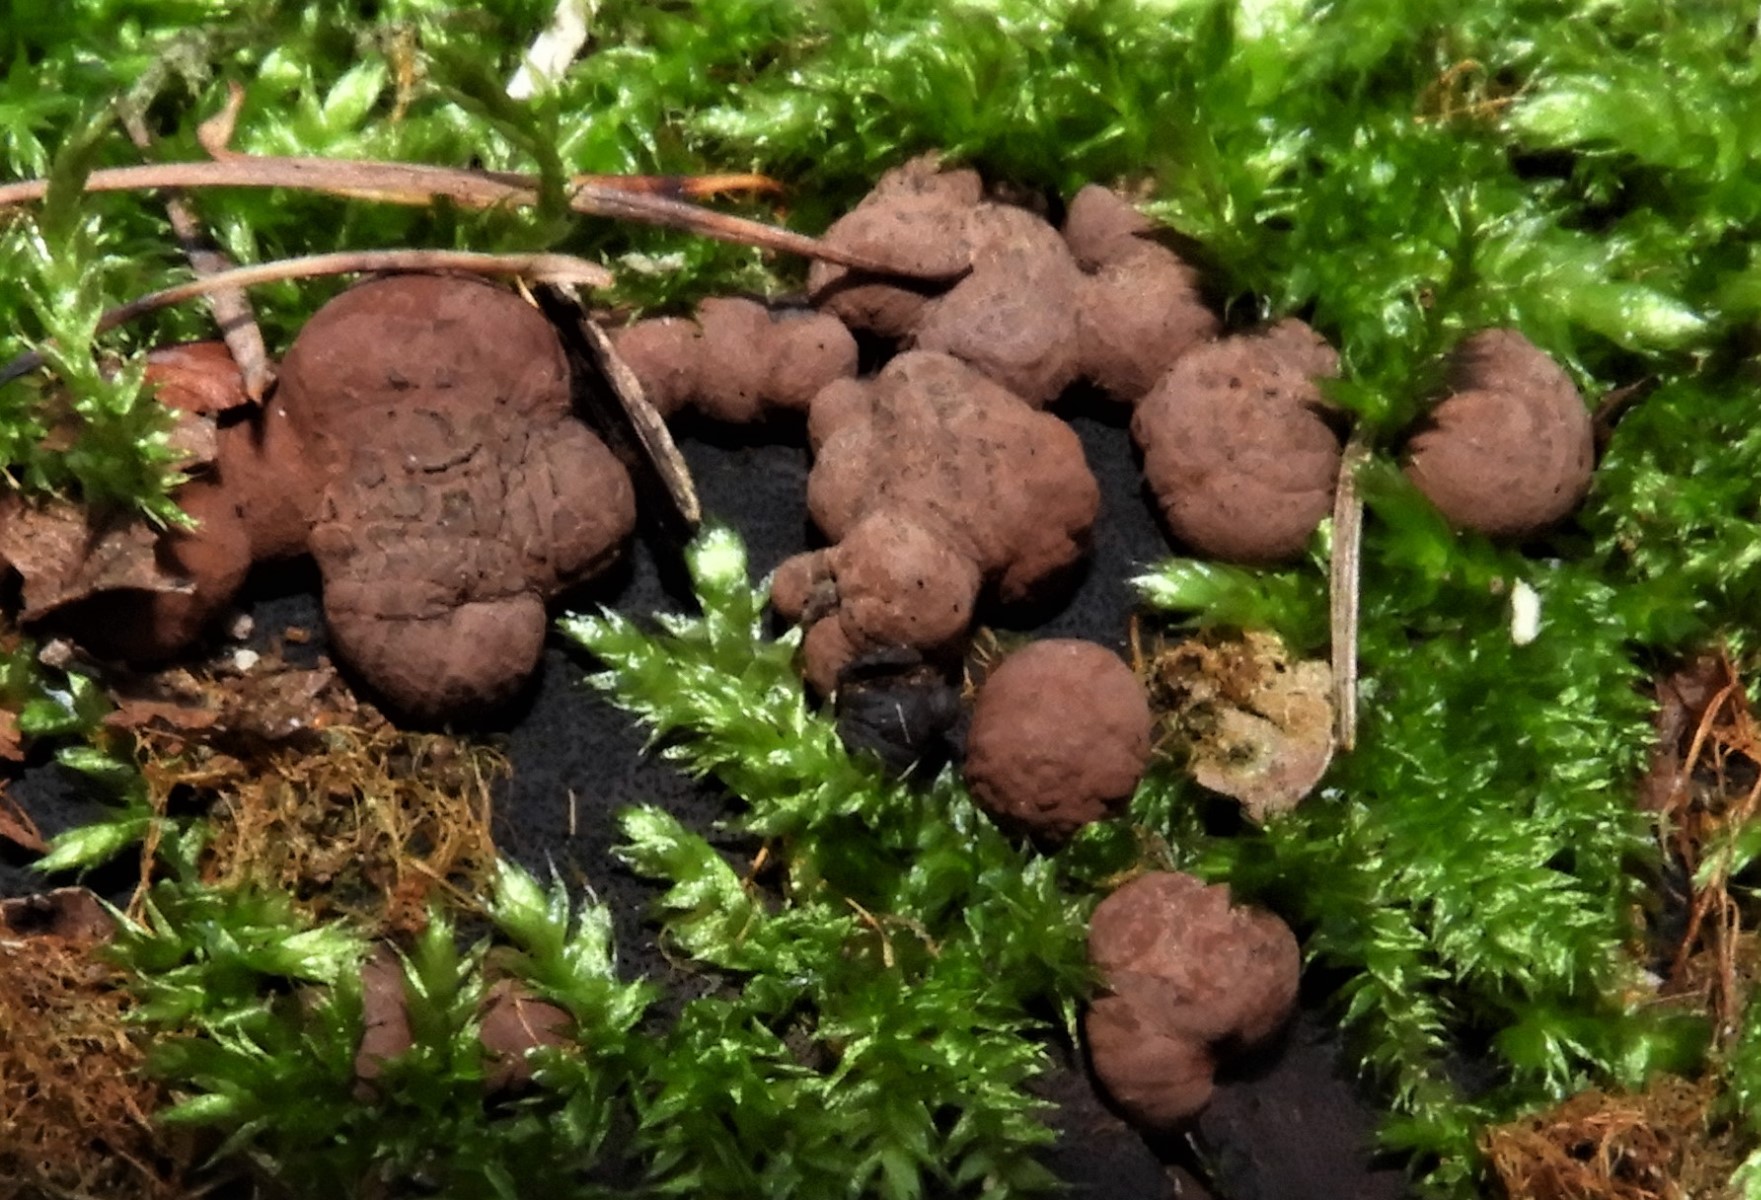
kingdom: Fungi
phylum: Ascomycota
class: Sordariomycetes
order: Xylariales
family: Hypoxylaceae
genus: Hypoxylon
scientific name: Hypoxylon
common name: kulbær
